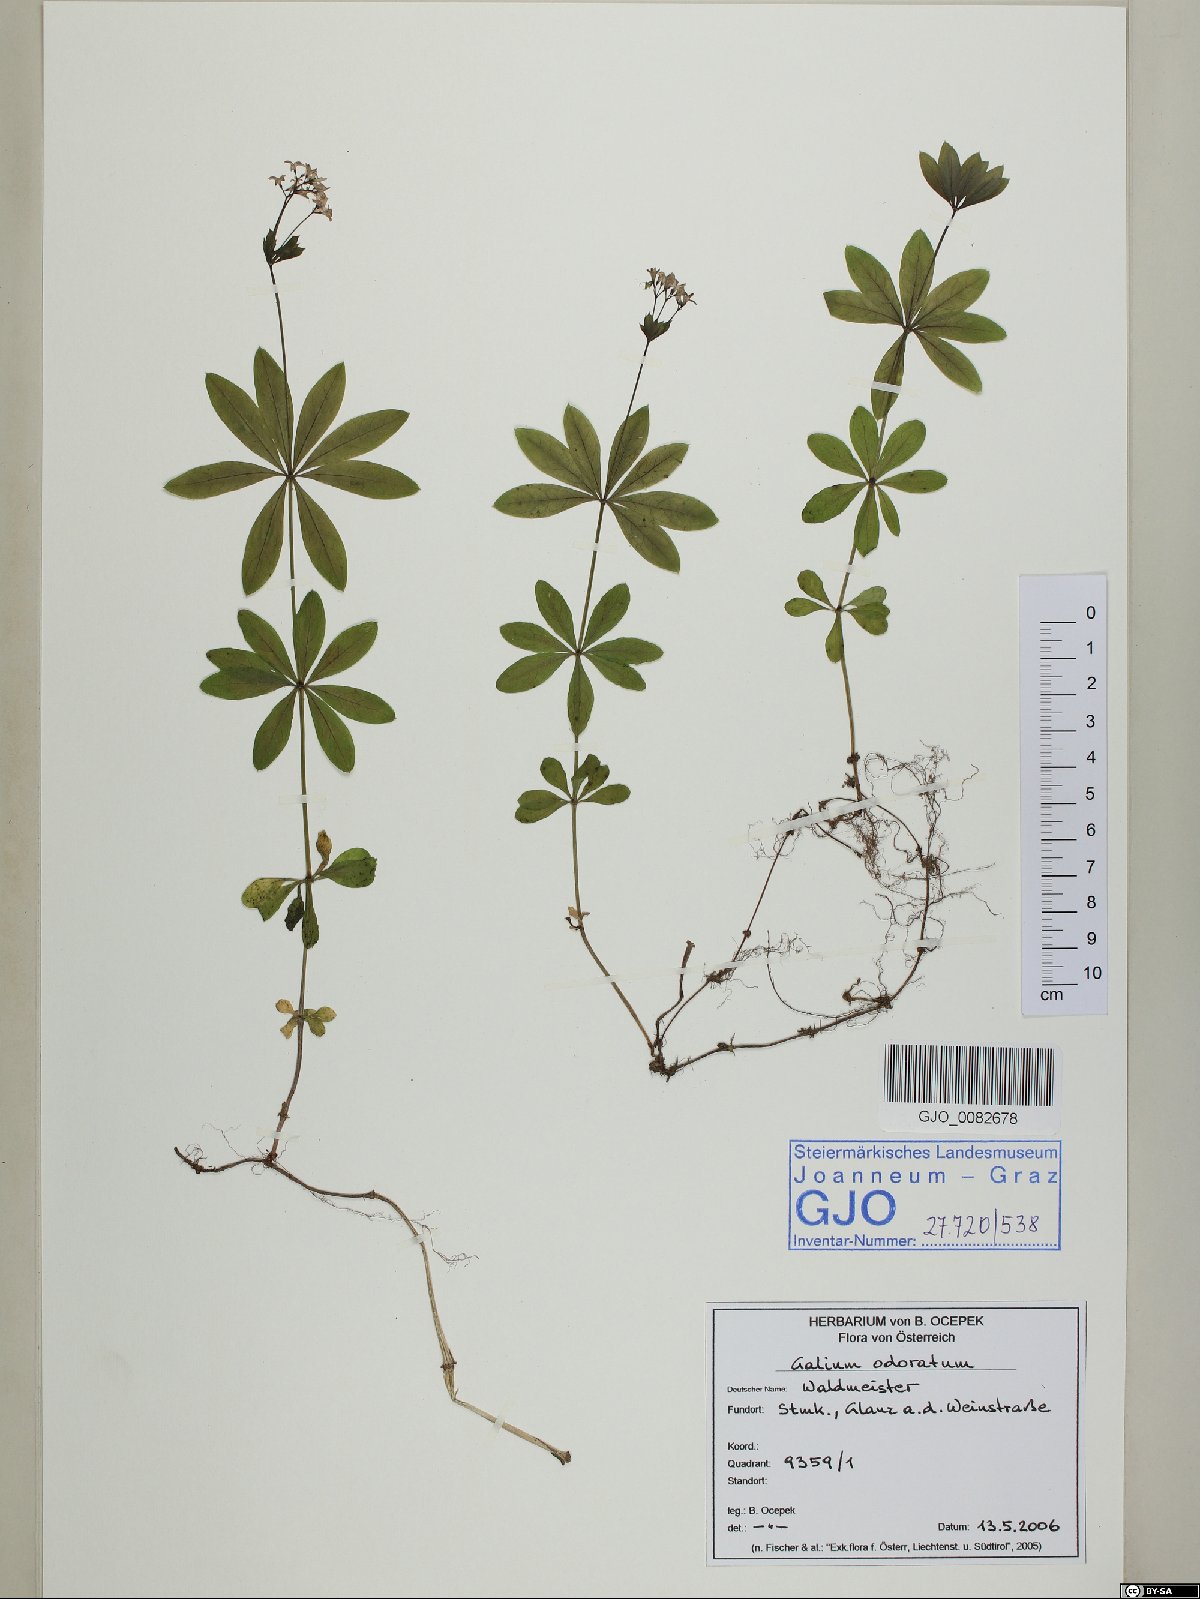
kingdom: Plantae
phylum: Tracheophyta
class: Magnoliopsida
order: Gentianales
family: Rubiaceae
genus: Galium
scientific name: Galium odoratum
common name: Sweet woodruff
